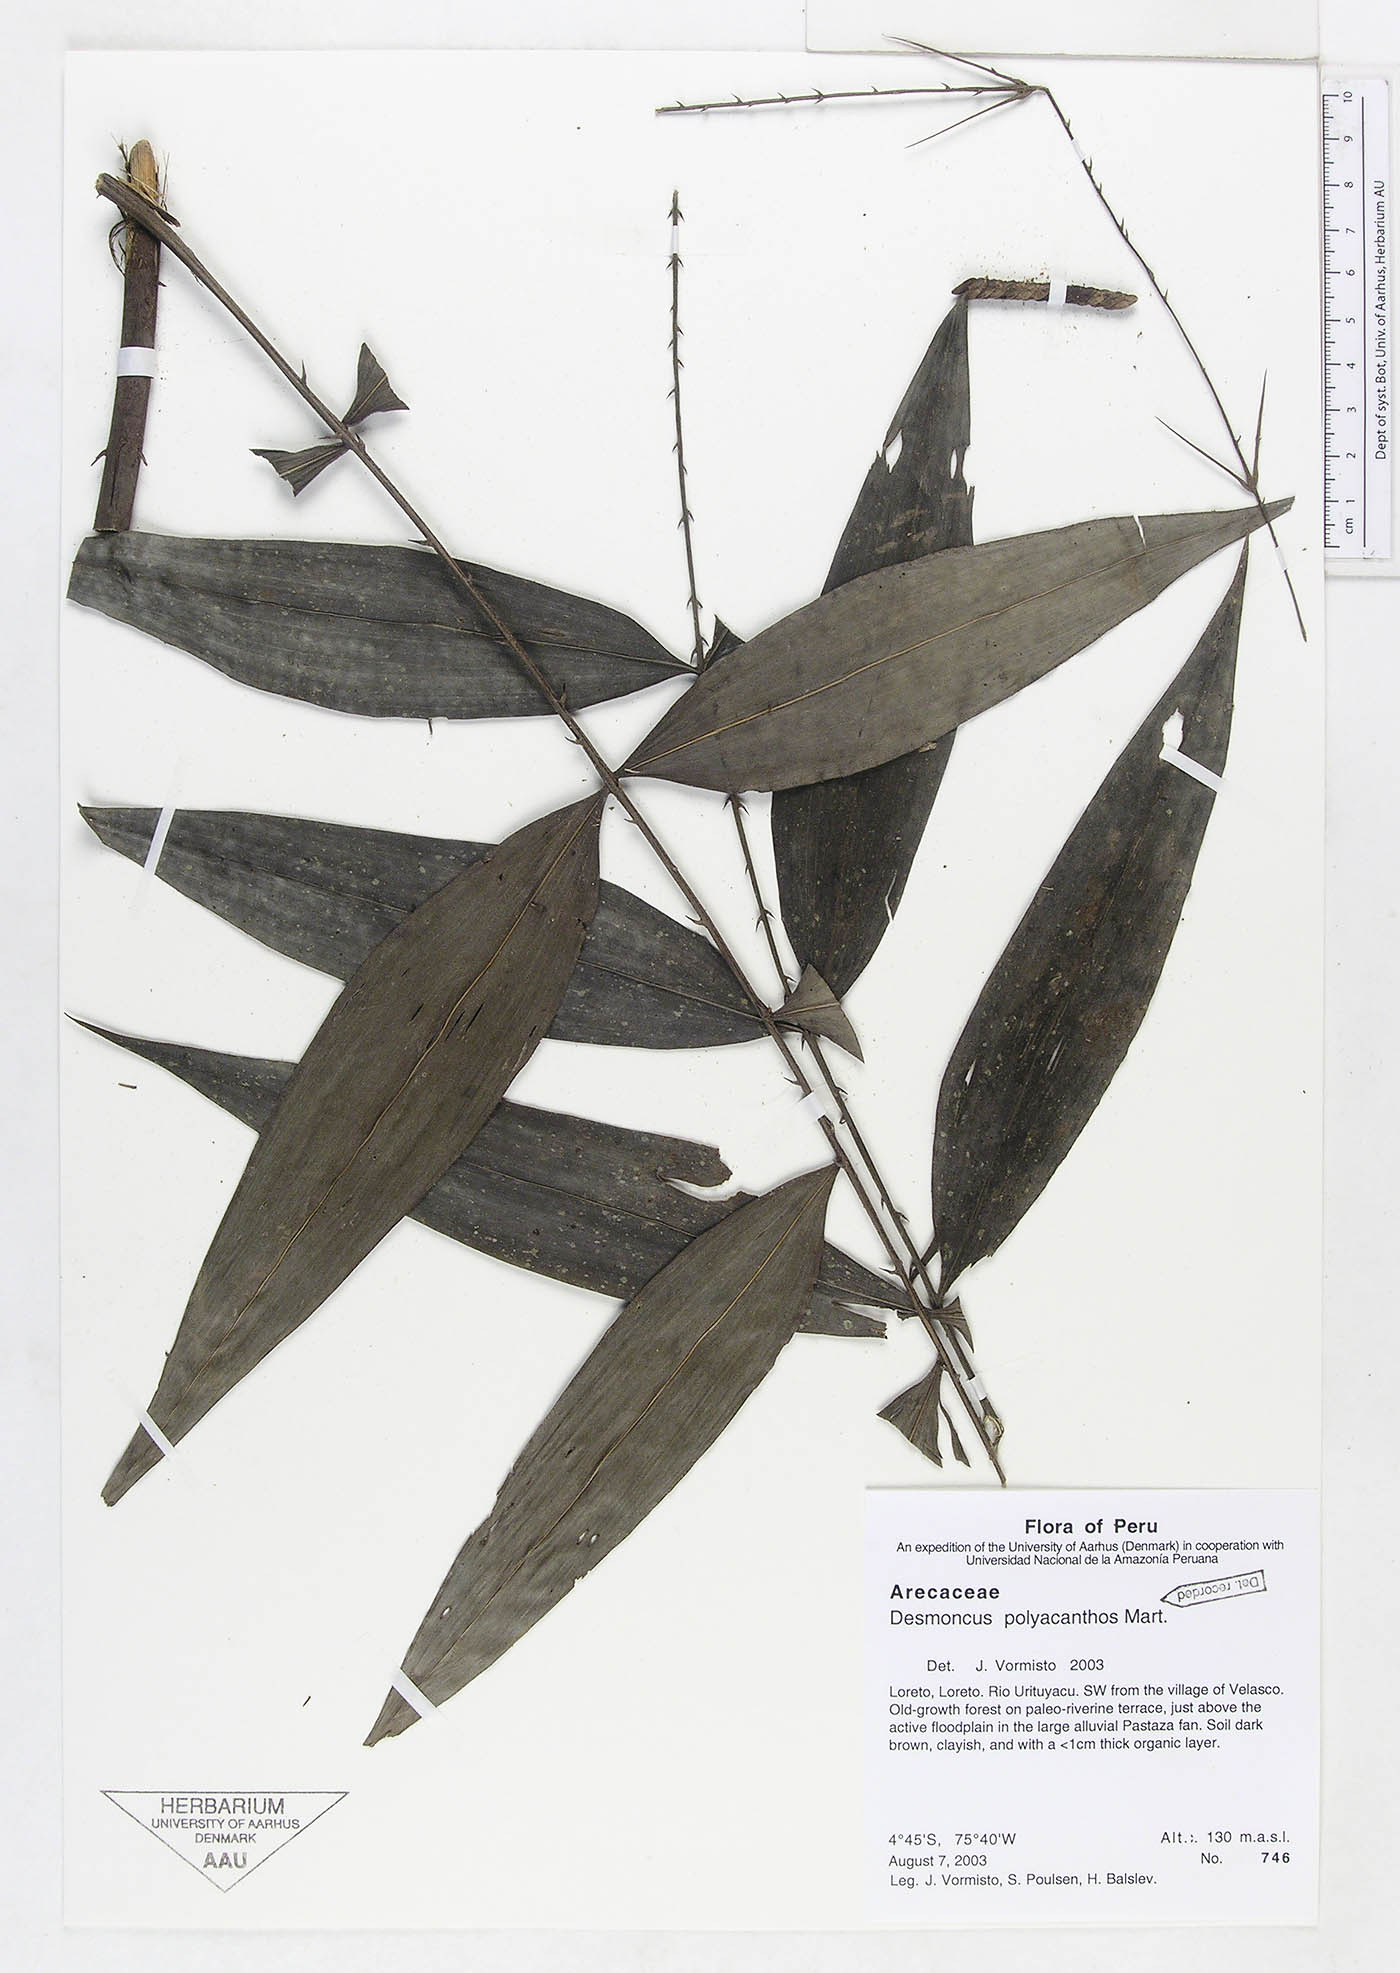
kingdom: Plantae
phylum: Tracheophyta
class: Liliopsida
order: Arecales
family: Arecaceae
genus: Desmoncus
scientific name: Desmoncus polyacanthos
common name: Suriname bramble palm
